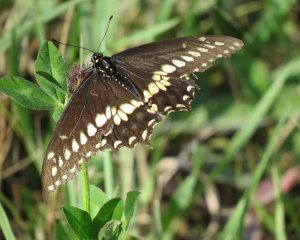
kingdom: Animalia
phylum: Arthropoda
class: Insecta
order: Lepidoptera
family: Papilionidae
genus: Papilio
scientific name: Papilio polyxenes
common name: Black Swallowtail
